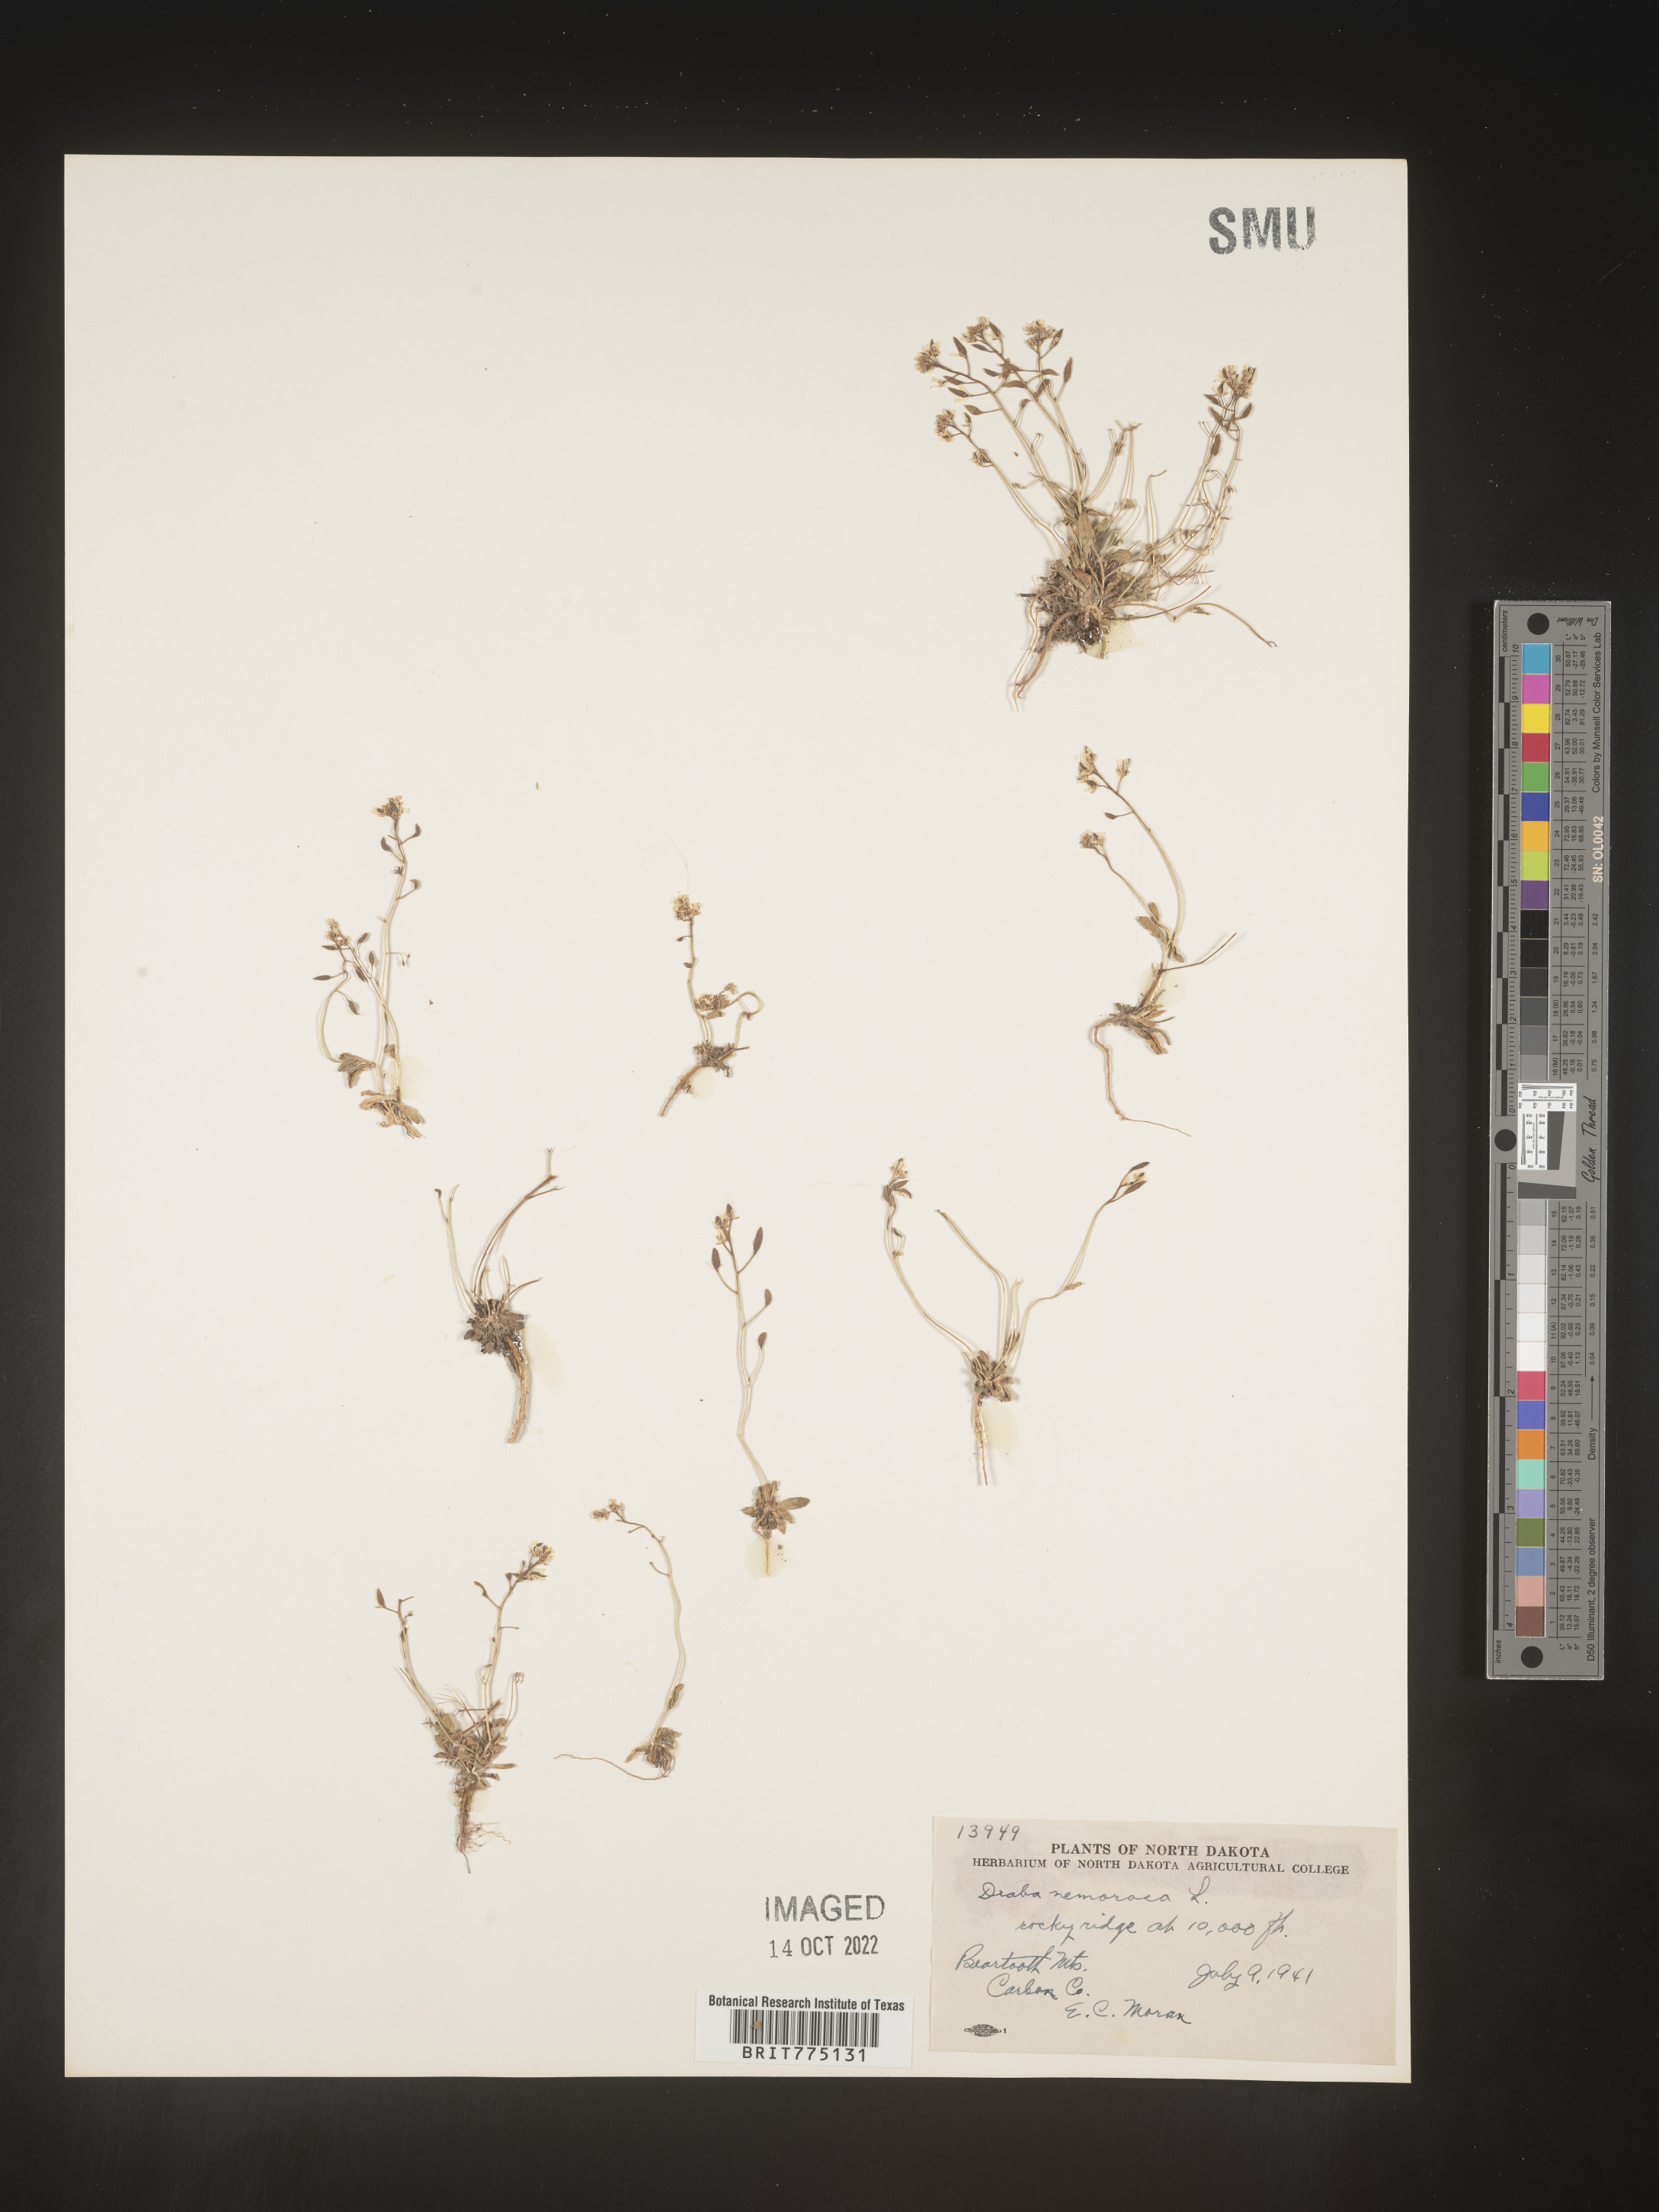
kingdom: Plantae
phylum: Tracheophyta
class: Magnoliopsida
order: Brassicales
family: Brassicaceae
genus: Draba
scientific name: Draba
